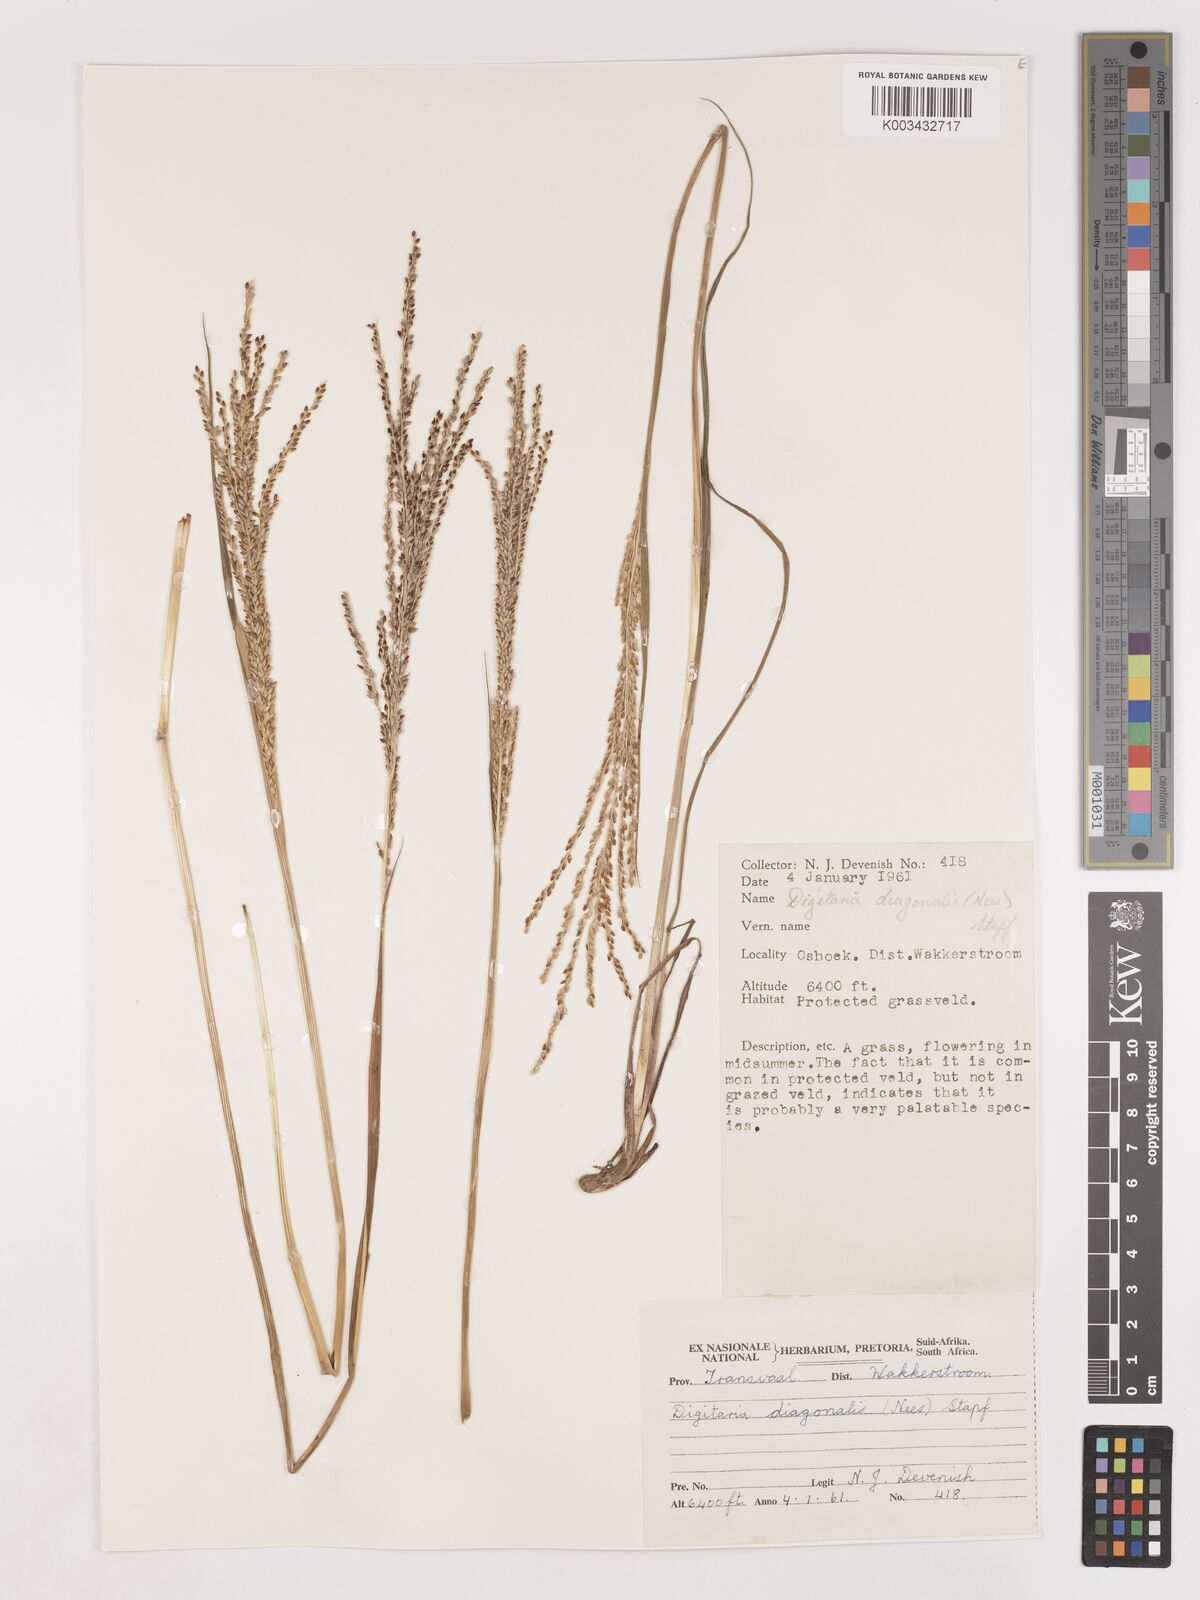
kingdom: Plantae
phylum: Tracheophyta
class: Liliopsida
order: Poales
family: Poaceae
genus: Digitaria
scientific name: Digitaria diagonalis
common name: Brown-seed finger grass
